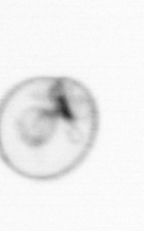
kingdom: Chromista
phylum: Myzozoa
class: Dinophyceae
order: Noctilucales
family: Noctilucaceae
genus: Noctiluca
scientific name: Noctiluca scintillans
